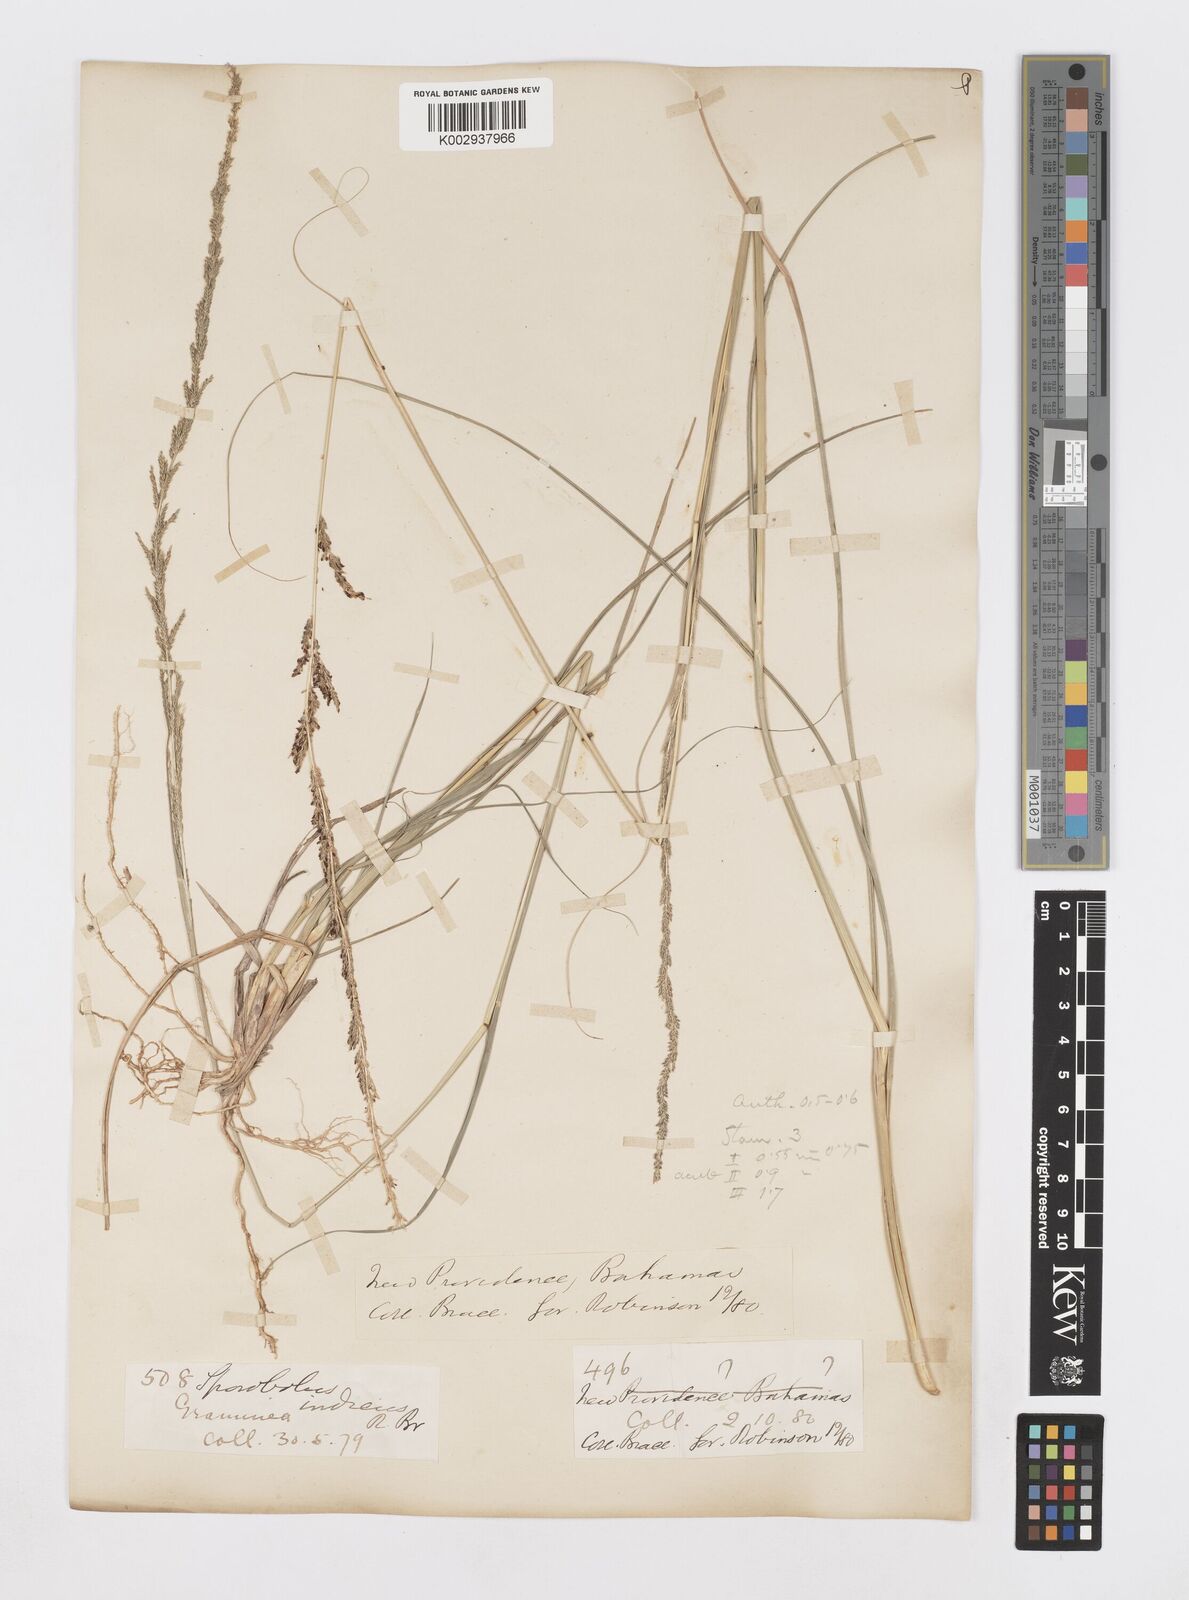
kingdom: Plantae
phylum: Tracheophyta
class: Liliopsida
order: Poales
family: Poaceae
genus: Sporobolus
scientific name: Sporobolus indicus
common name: Smut grass
